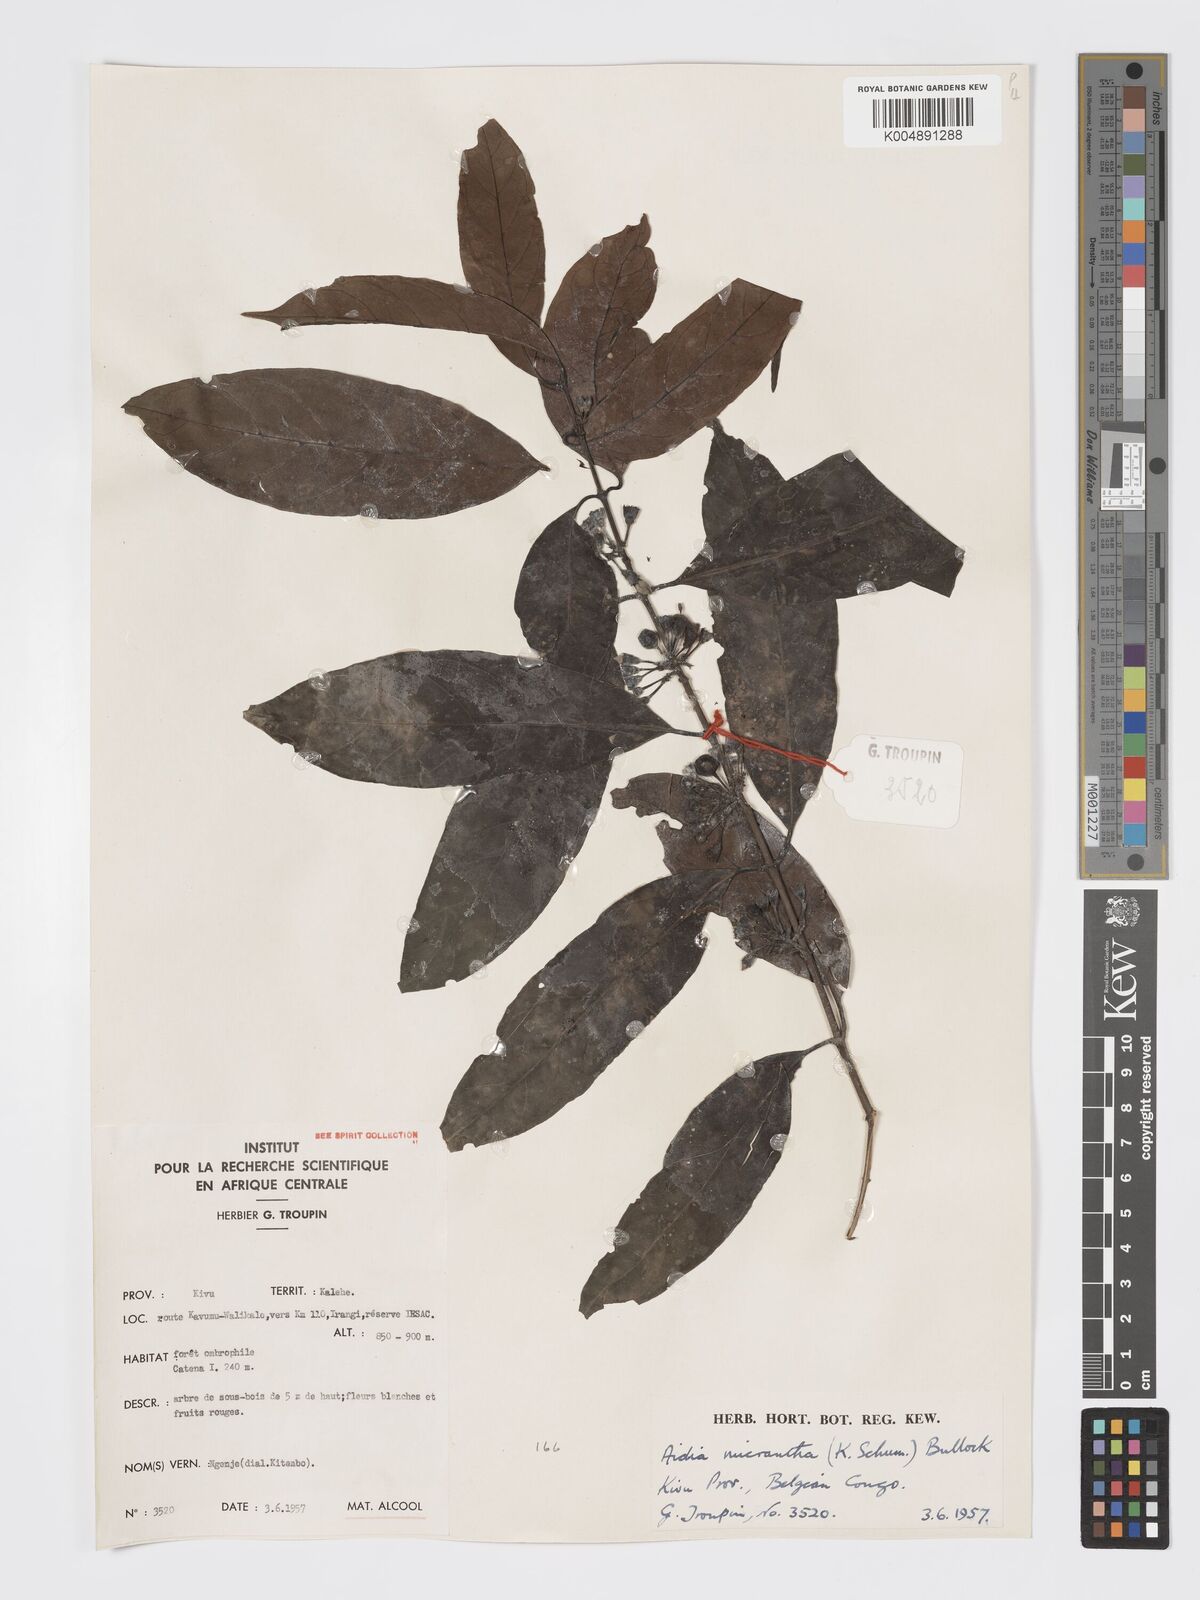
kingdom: Plantae
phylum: Tracheophyta
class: Magnoliopsida
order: Gentianales
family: Rubiaceae
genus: Aidia
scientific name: Aidia micrantha
